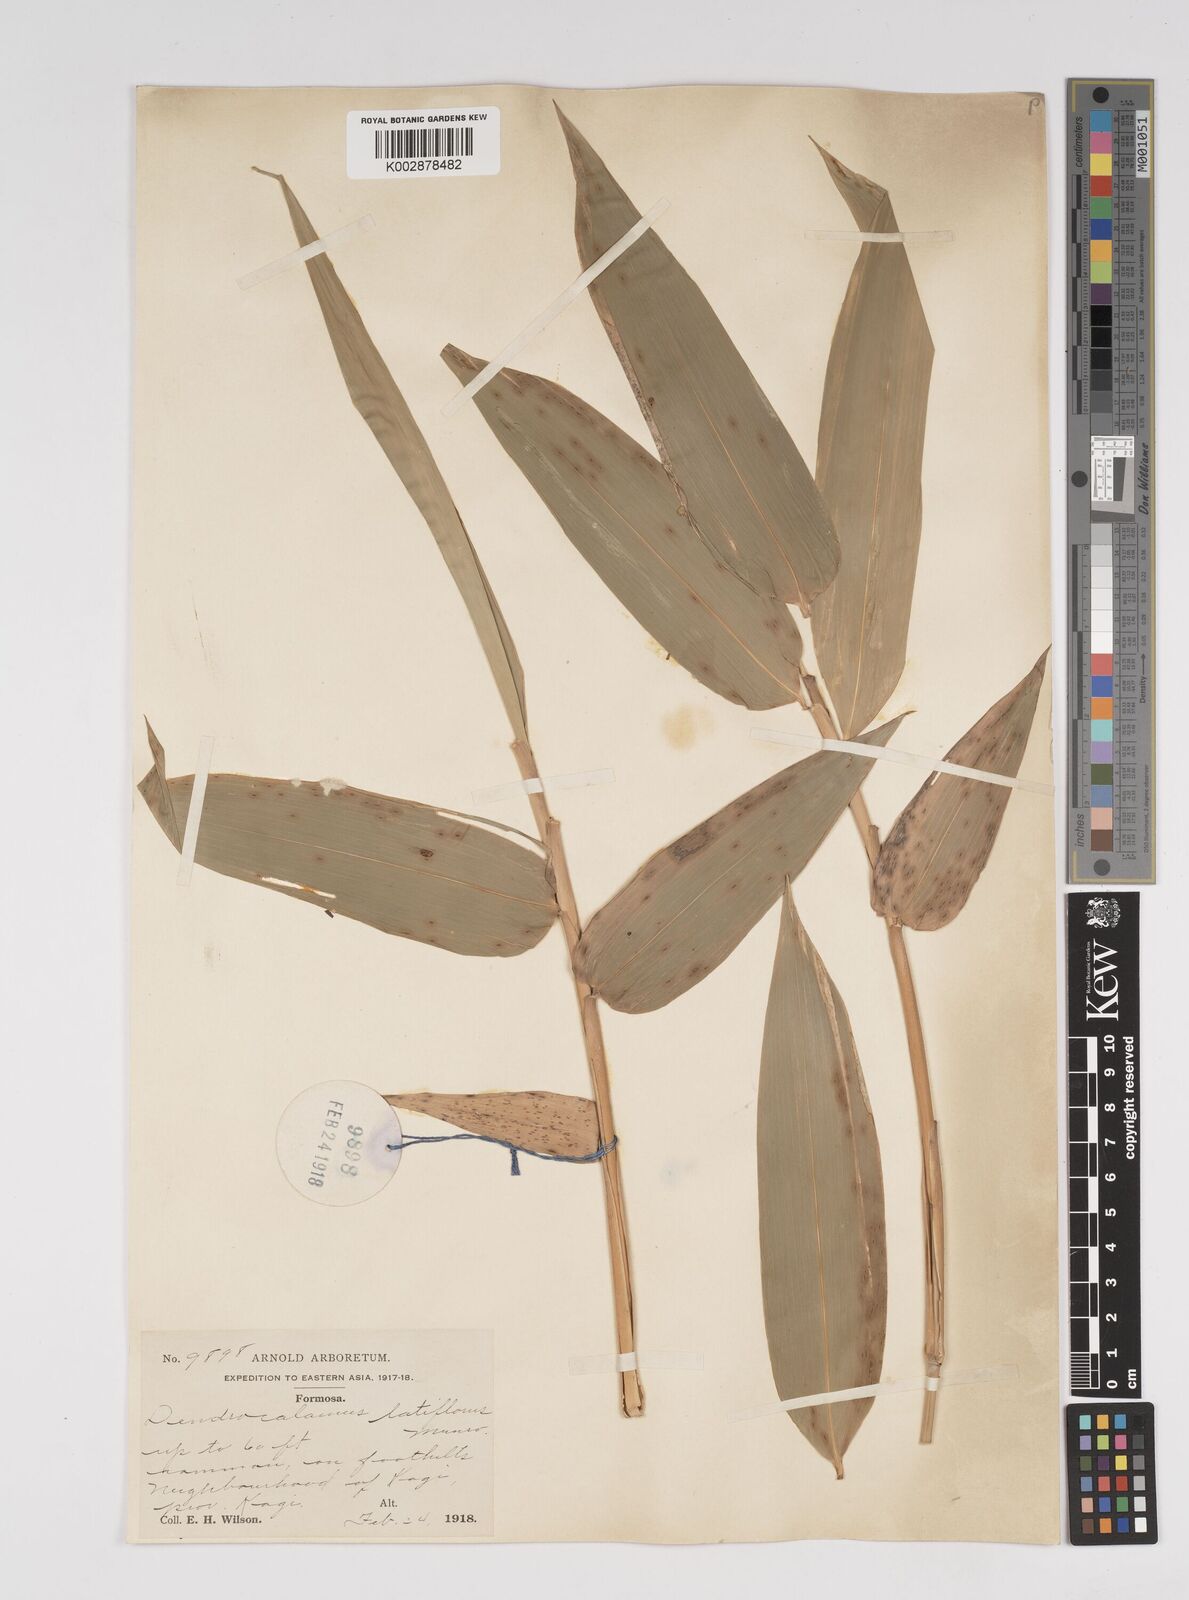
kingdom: Plantae
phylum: Tracheophyta
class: Liliopsida
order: Poales
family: Poaceae
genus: Dendrocalamus
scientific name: Dendrocalamus latiflorus
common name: Giant bamboo
